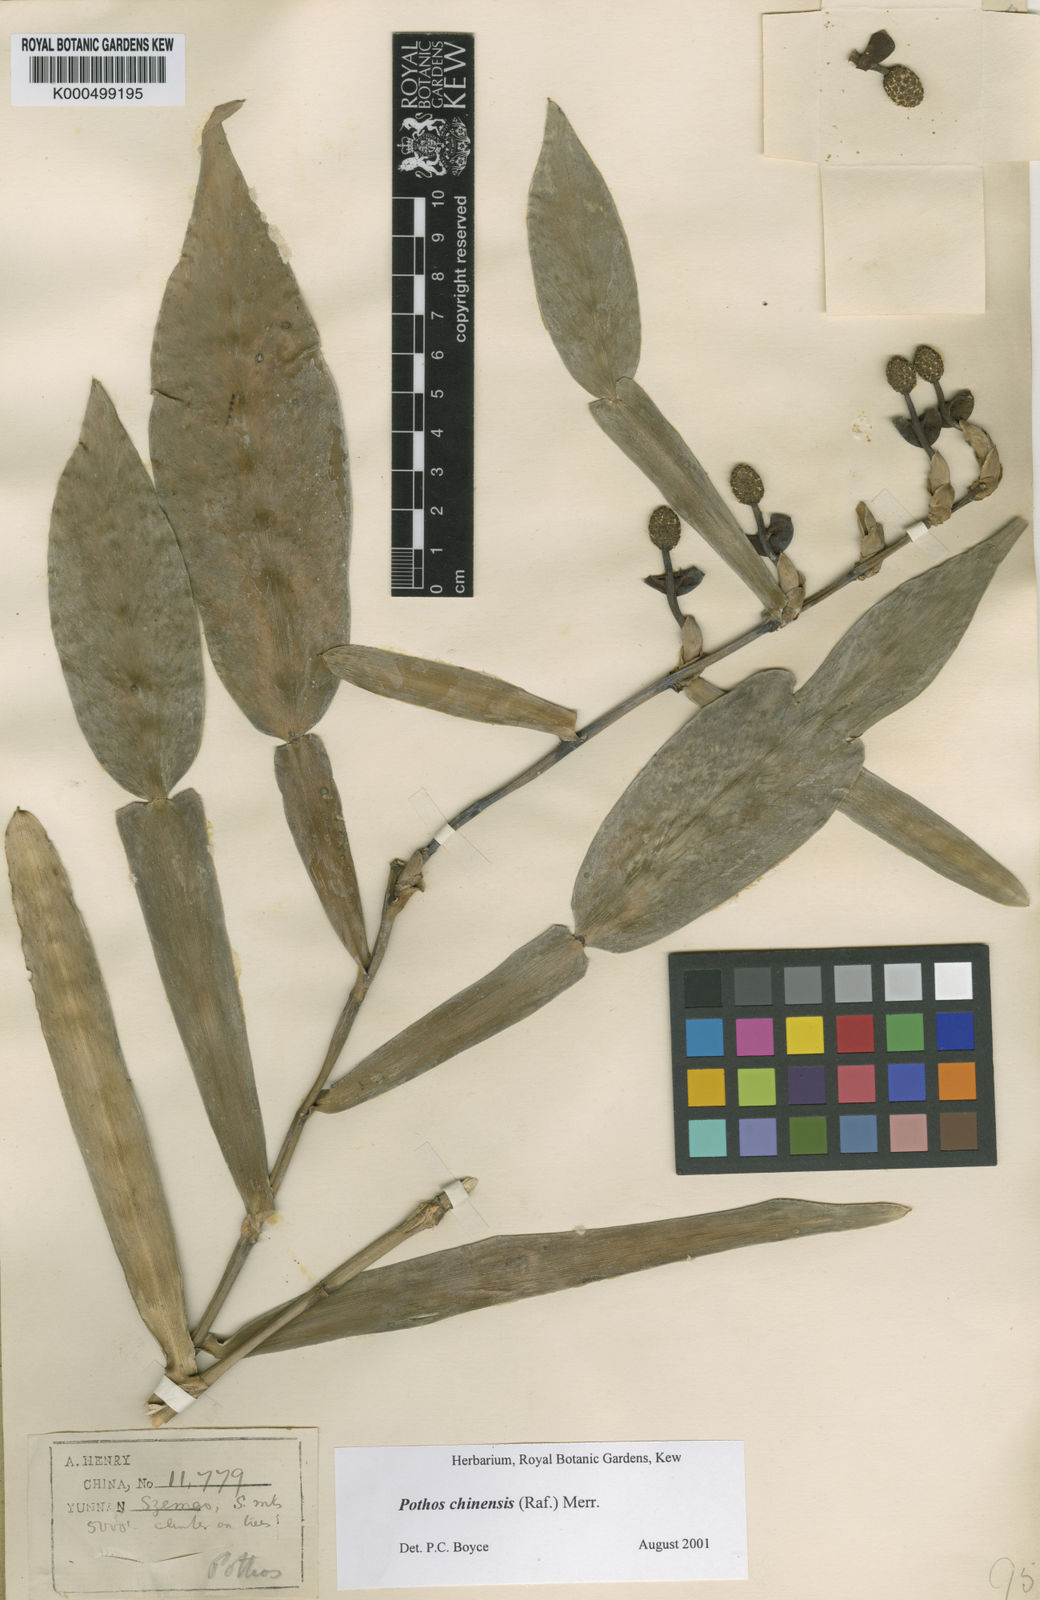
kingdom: Plantae
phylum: Tracheophyta
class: Liliopsida
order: Alismatales
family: Araceae
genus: Pothos
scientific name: Pothos chinensis
